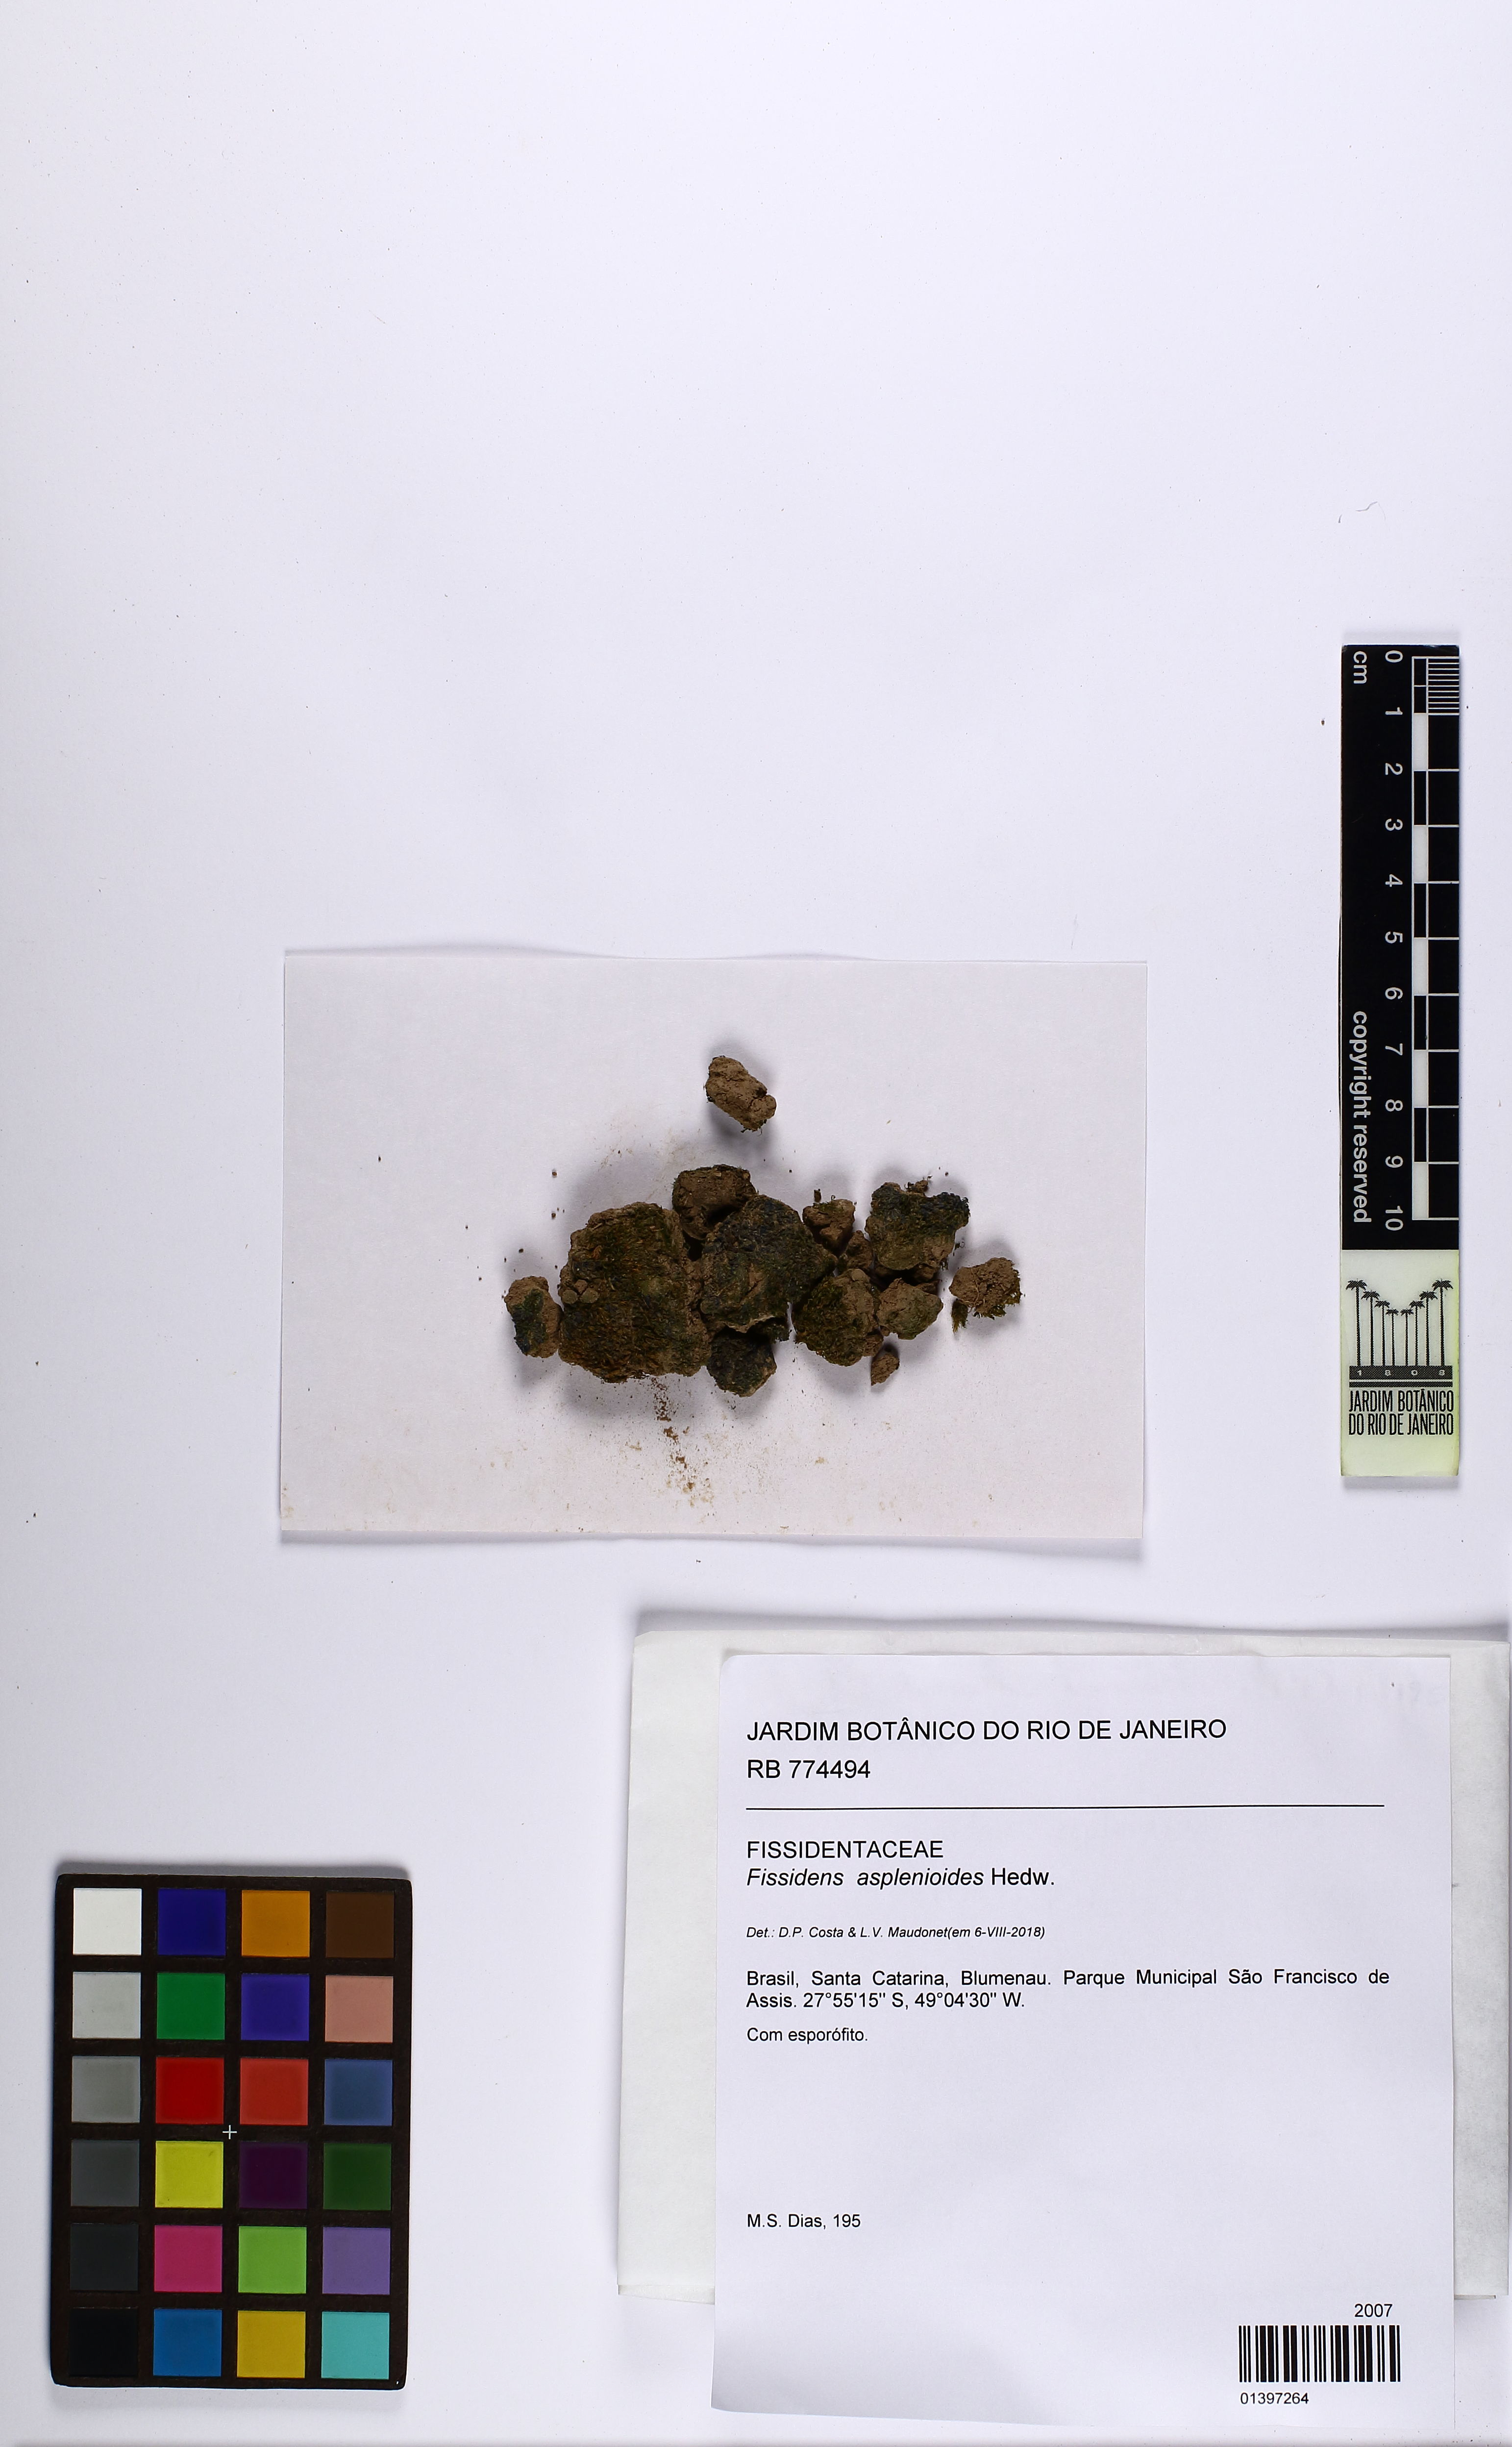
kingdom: Plantae
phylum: Bryophyta
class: Bryopsida
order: Dicranales
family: Fissidentaceae
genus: Fissidens
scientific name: Fissidens asplenioides
